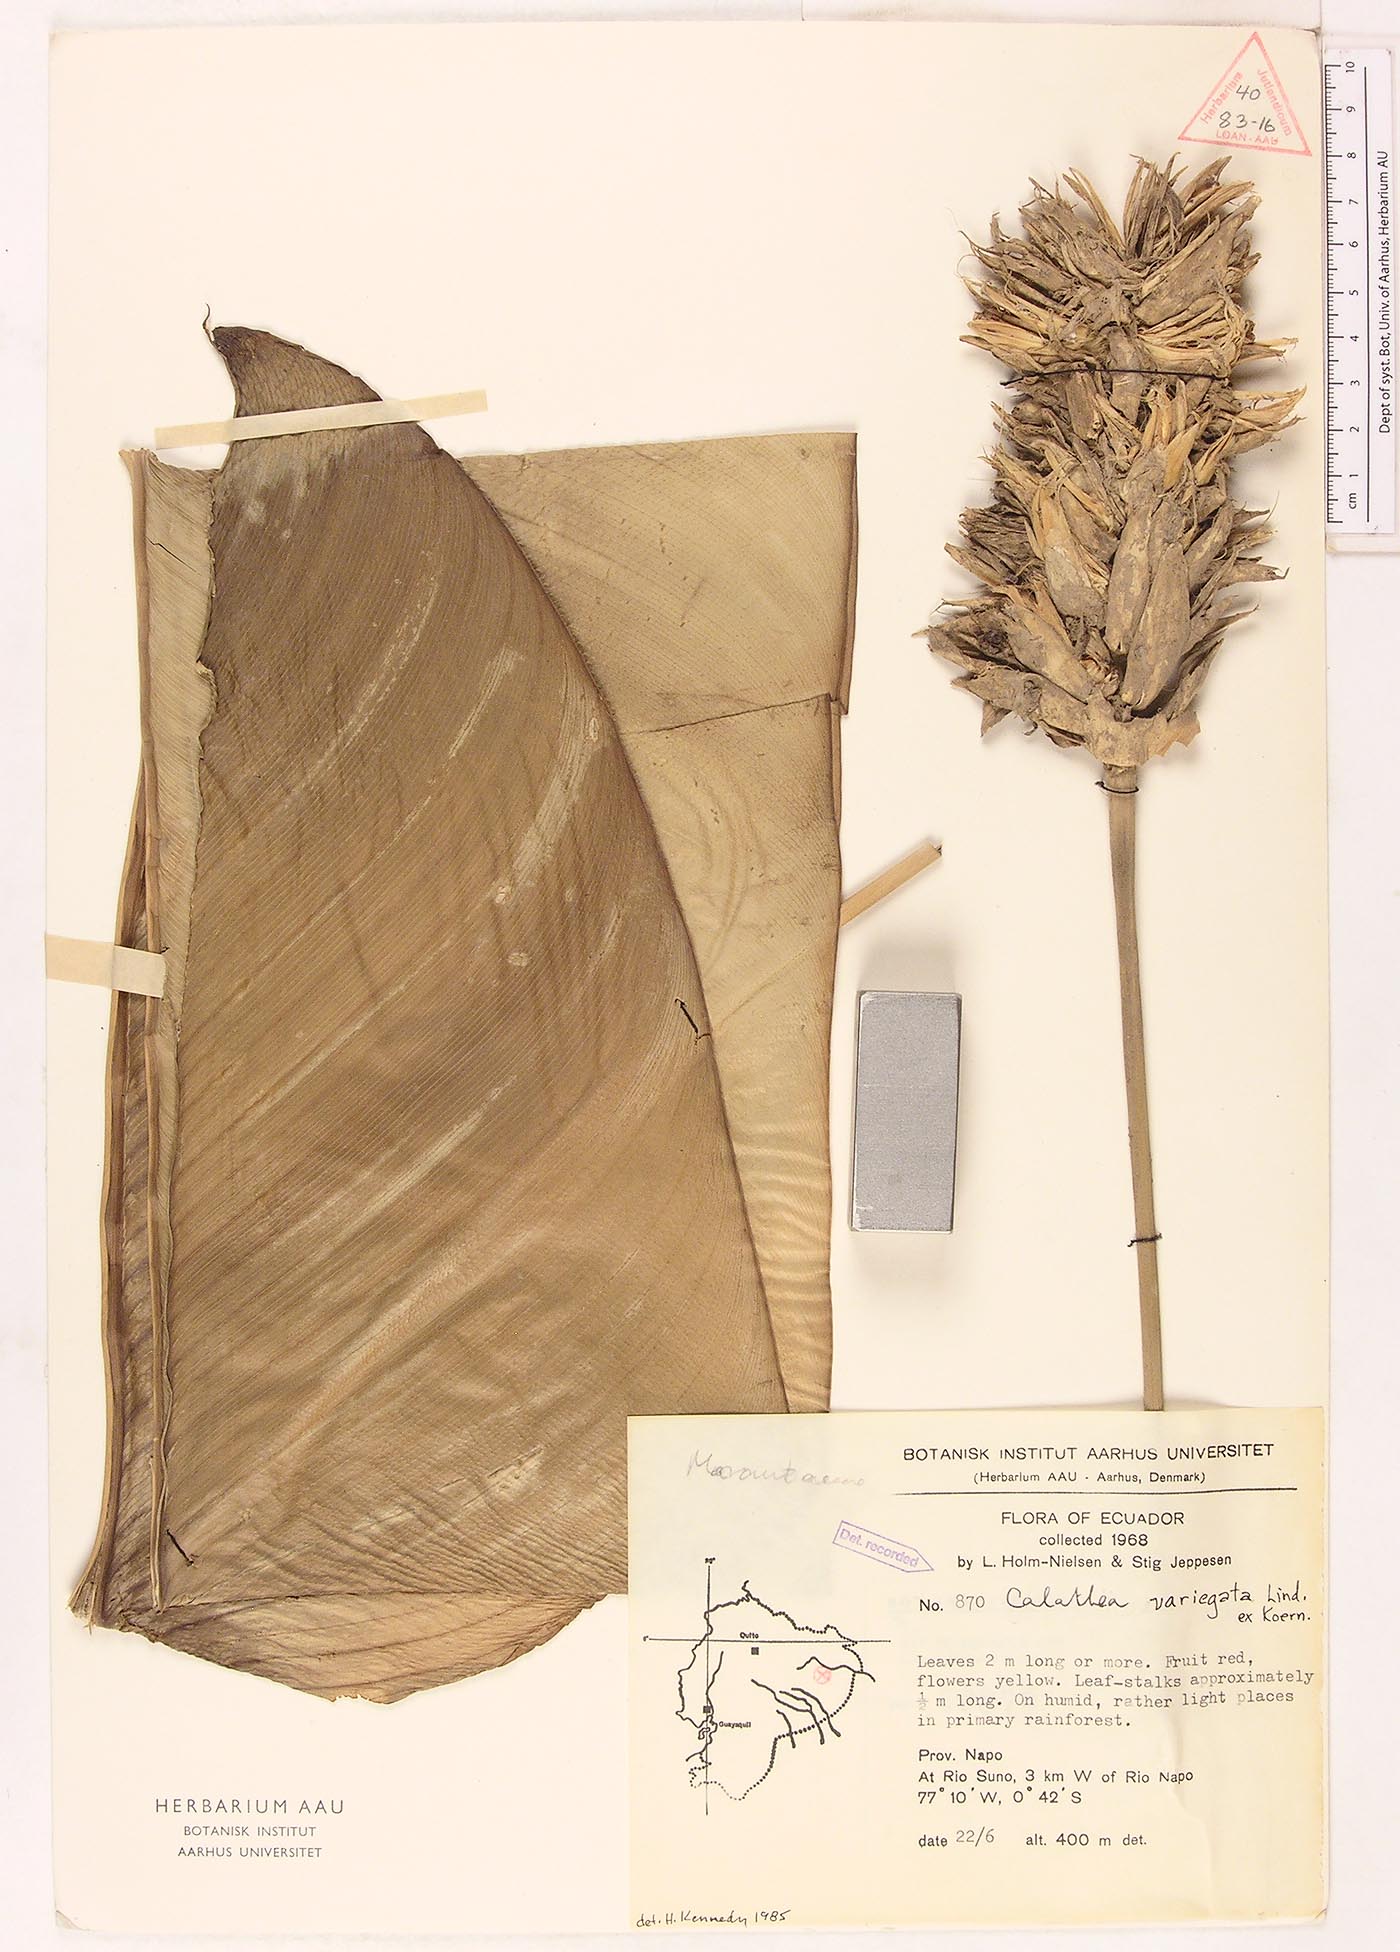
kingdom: Plantae
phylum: Tracheophyta
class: Liliopsida
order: Zingiberales
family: Marantaceae
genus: Goeppertia
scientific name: Goeppertia variegata
